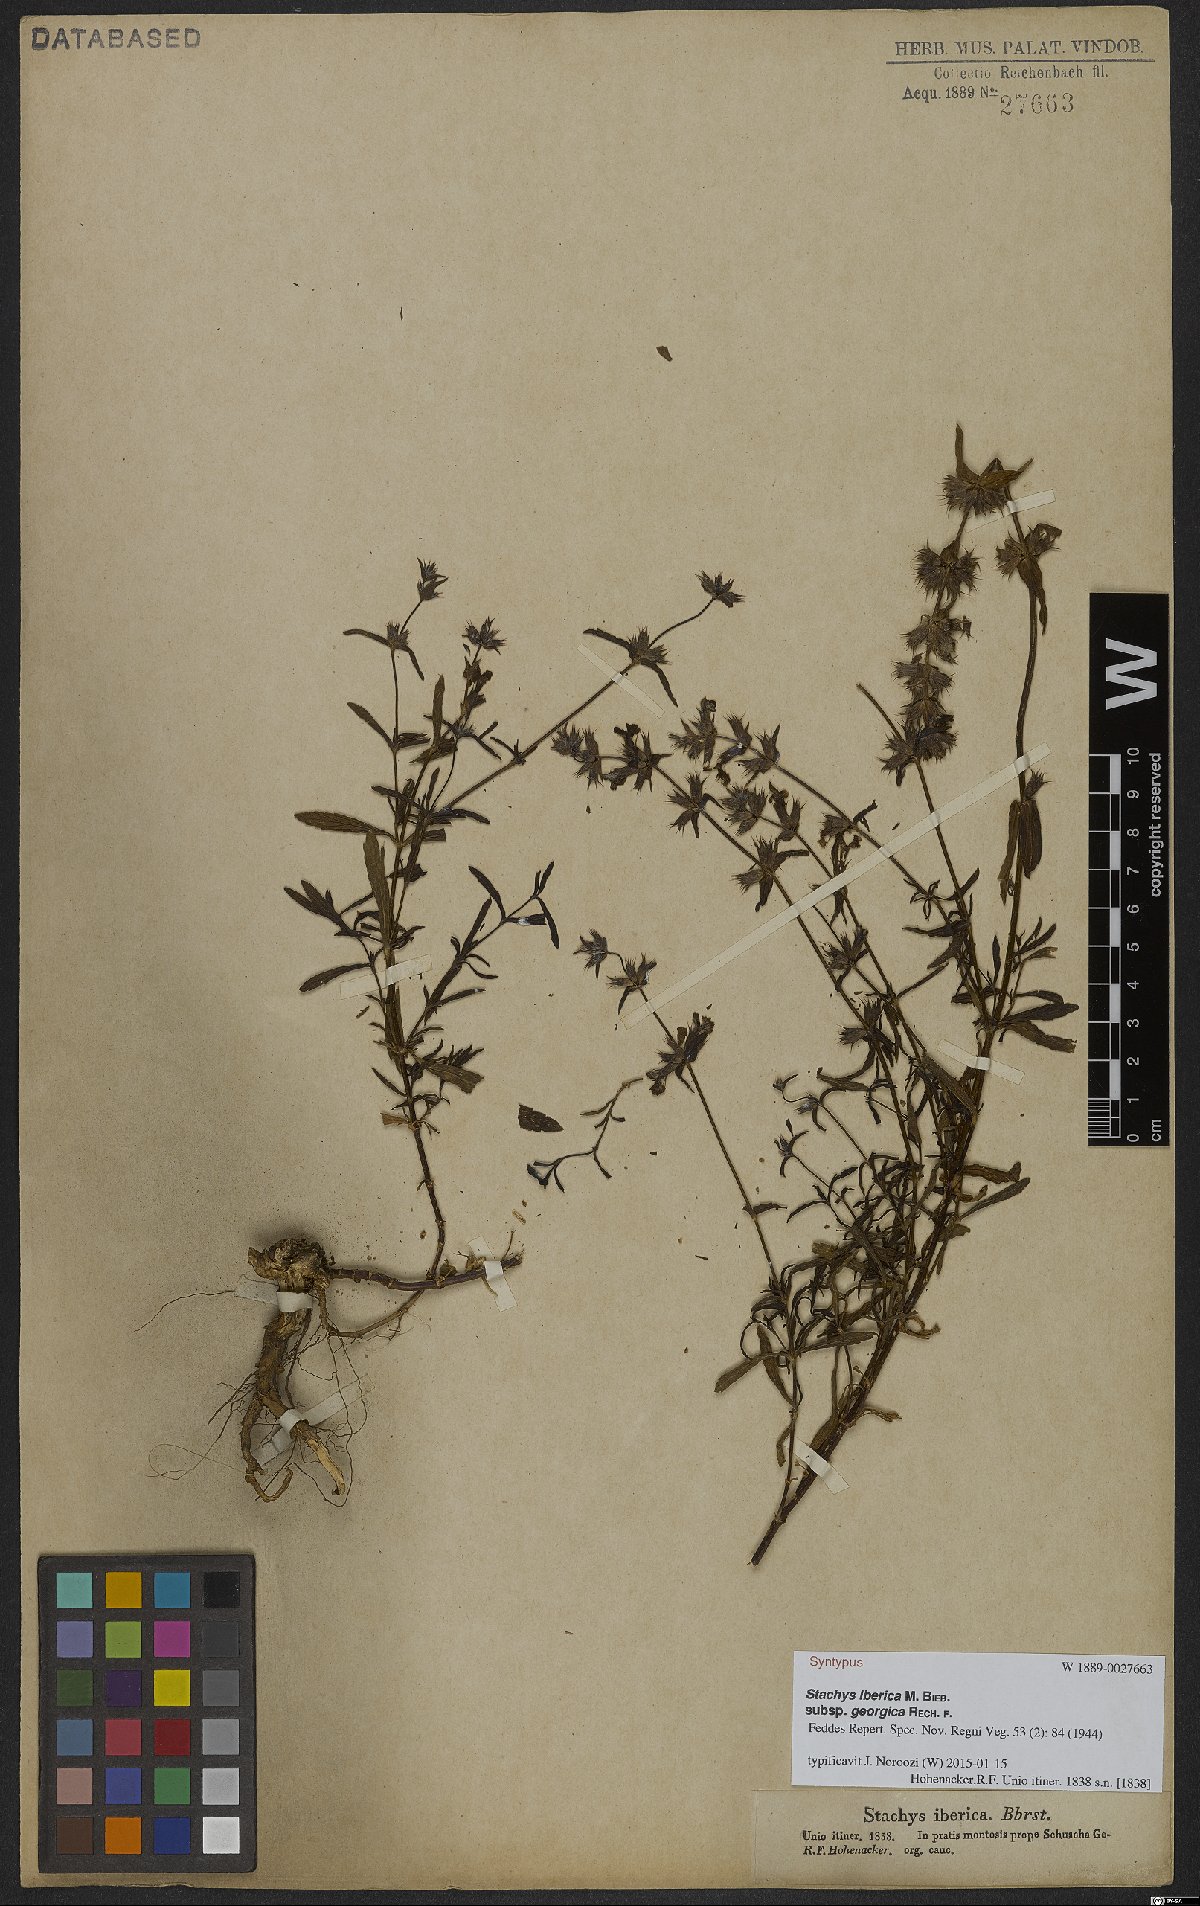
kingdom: Plantae
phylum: Tracheophyta
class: Magnoliopsida
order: Lamiales
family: Lamiaceae
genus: Stachys
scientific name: Stachys iberica
